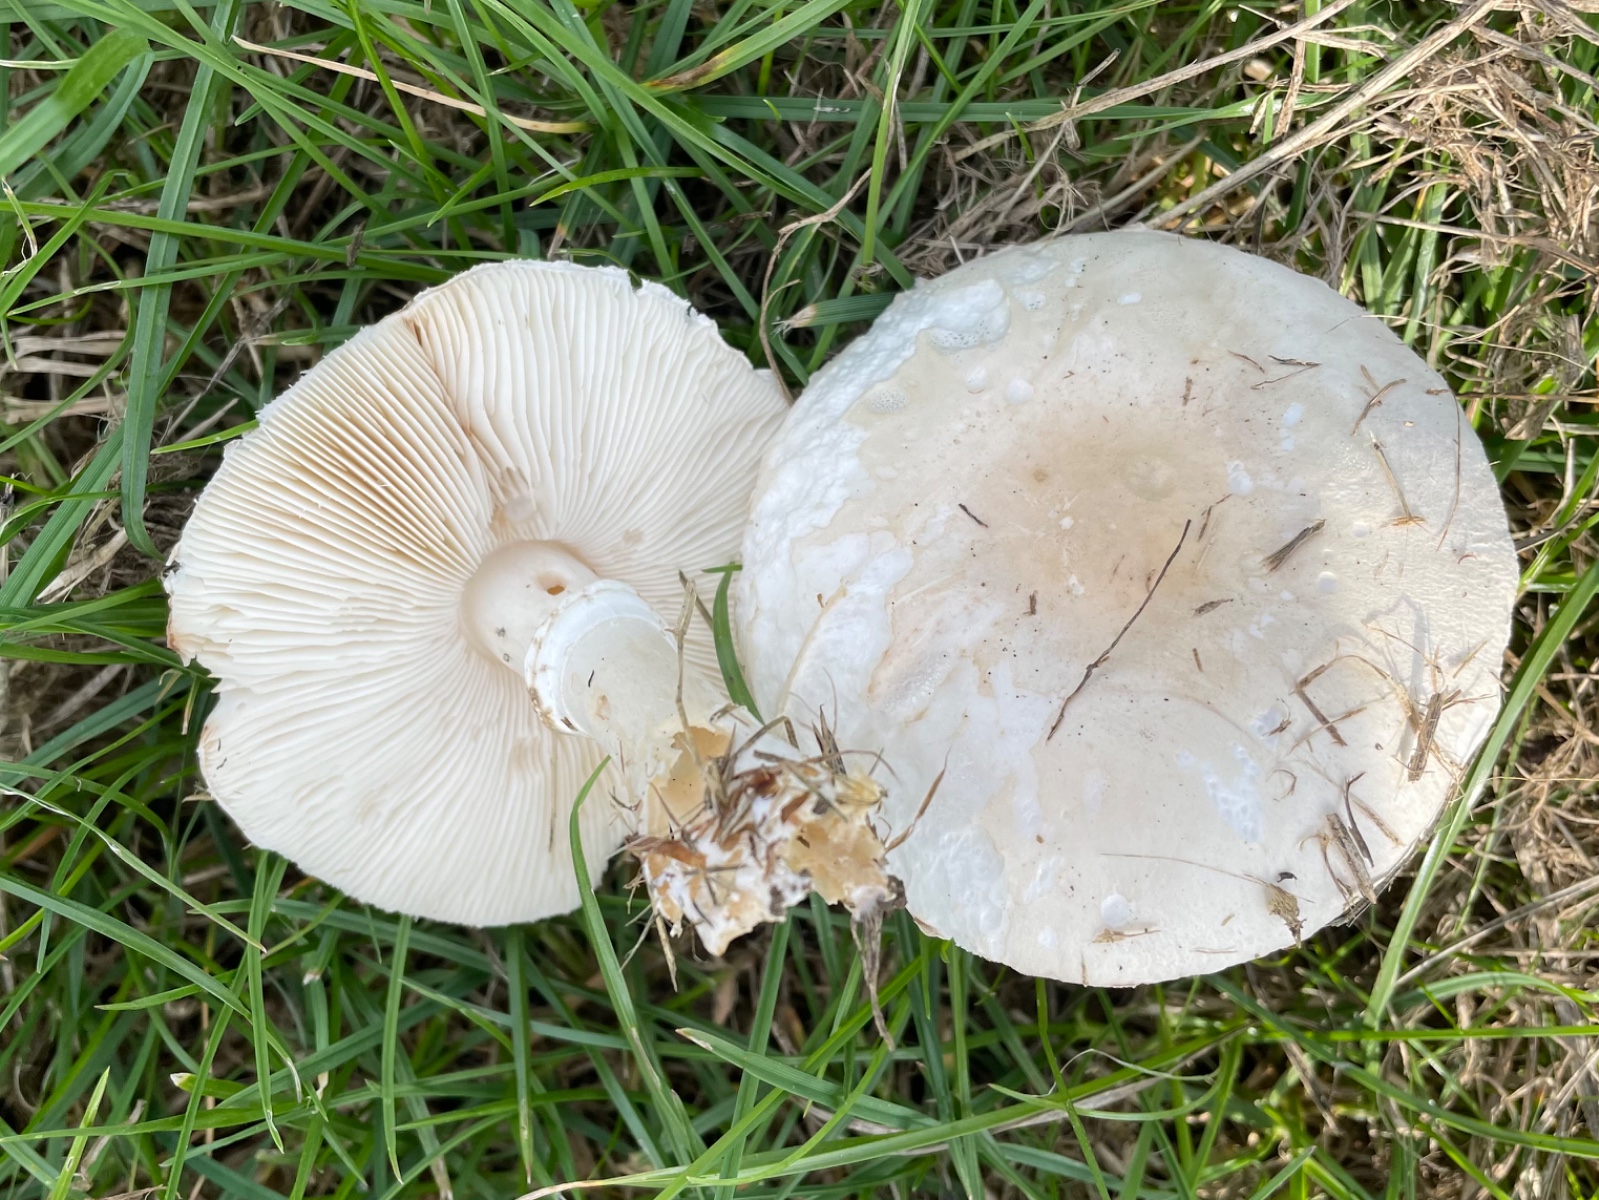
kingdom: Fungi
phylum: Basidiomycota
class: Agaricomycetes
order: Agaricales
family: Agaricaceae
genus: Leucoagaricus
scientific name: Leucoagaricus leucothites
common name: rosabladet silkehat
